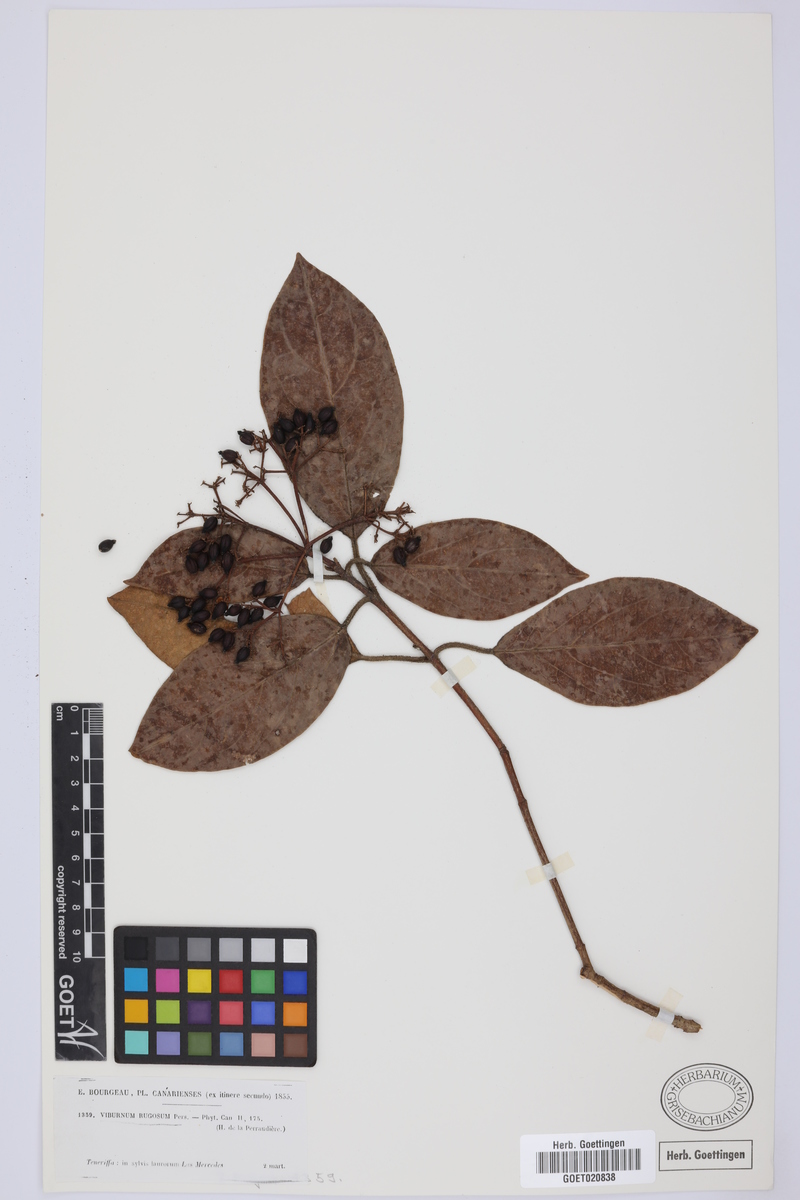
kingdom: Plantae
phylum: Tracheophyta
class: Magnoliopsida
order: Dipsacales
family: Viburnaceae
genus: Viburnum
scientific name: Viburnum rugosum
